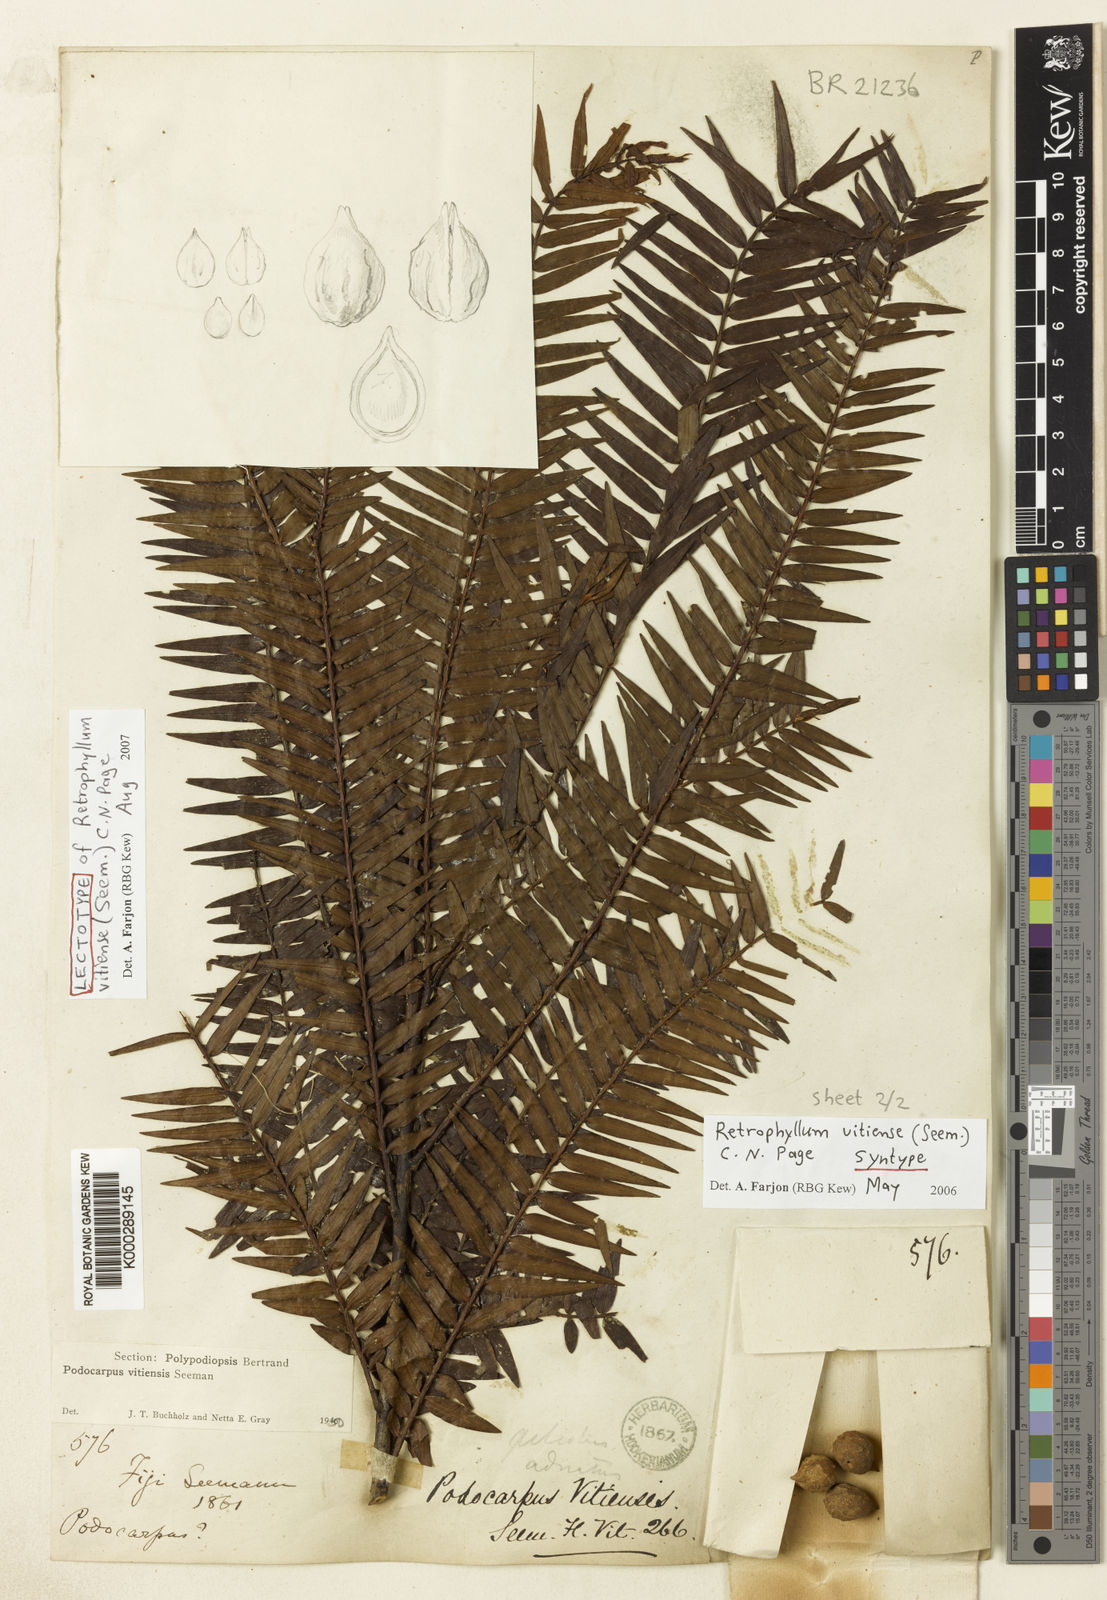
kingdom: Plantae
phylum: Tracheophyta
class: Pinopsida
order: Pinales
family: Podocarpaceae
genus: Retrophyllum
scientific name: Retrophyllum vitiense
